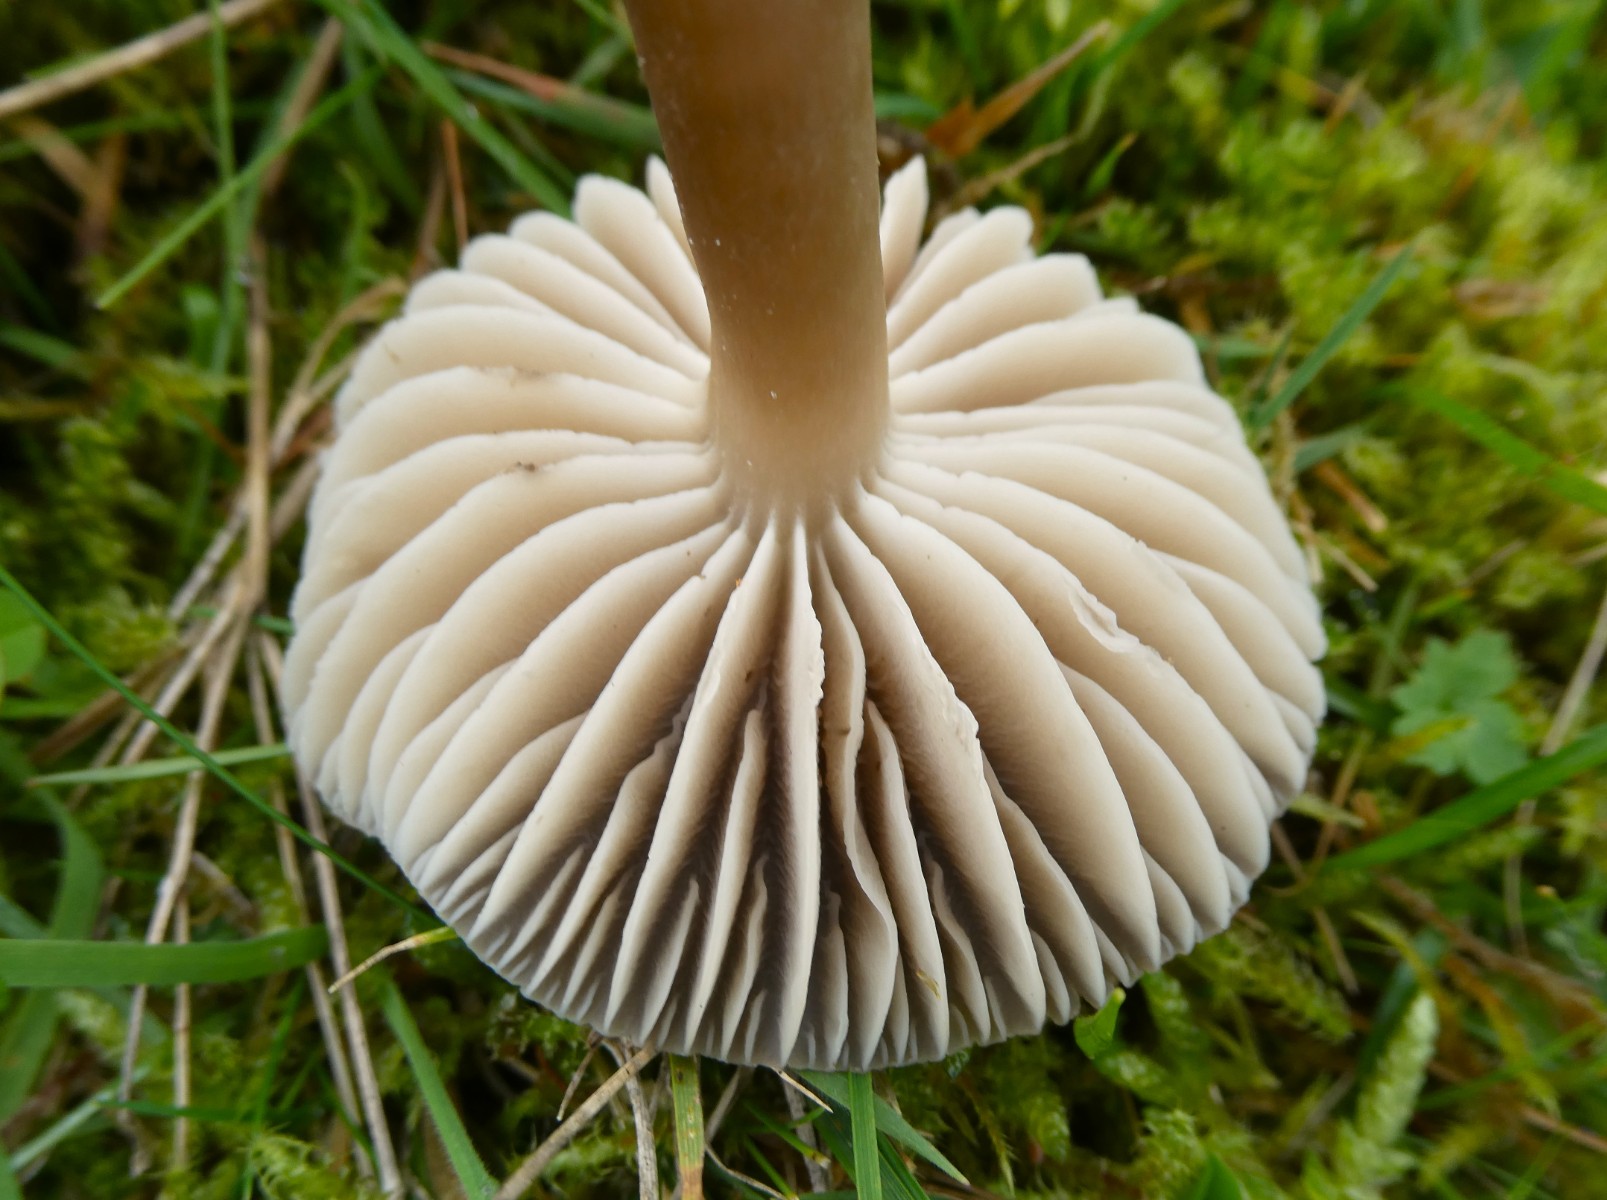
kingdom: Fungi
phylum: Basidiomycota
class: Agaricomycetes
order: Agaricales
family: Hygrophoraceae
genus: Neohygrocybe
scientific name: Neohygrocybe nitrata
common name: stinkende vokshat
